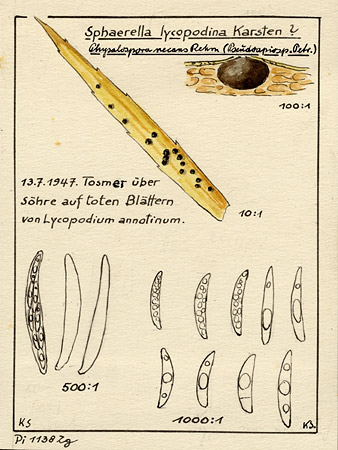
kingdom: Fungi
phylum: Ascomycota
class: Sordariomycetes
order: Xylariales
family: Pseudomassariaceae
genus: Leiosphaerella
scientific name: Leiosphaerella lycopodina
